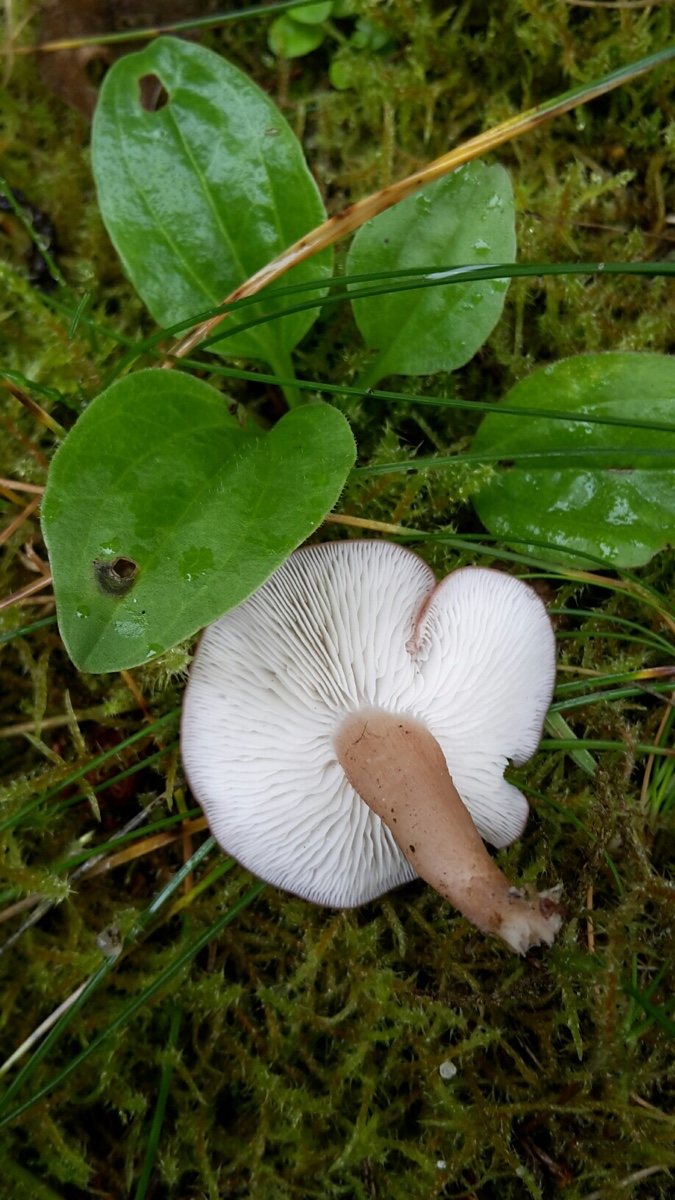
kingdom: Fungi
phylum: Basidiomycota
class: Agaricomycetes
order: Agaricales
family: Lyophyllaceae
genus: Calocybe
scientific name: Calocybe carnea
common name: rosa fagerhat
